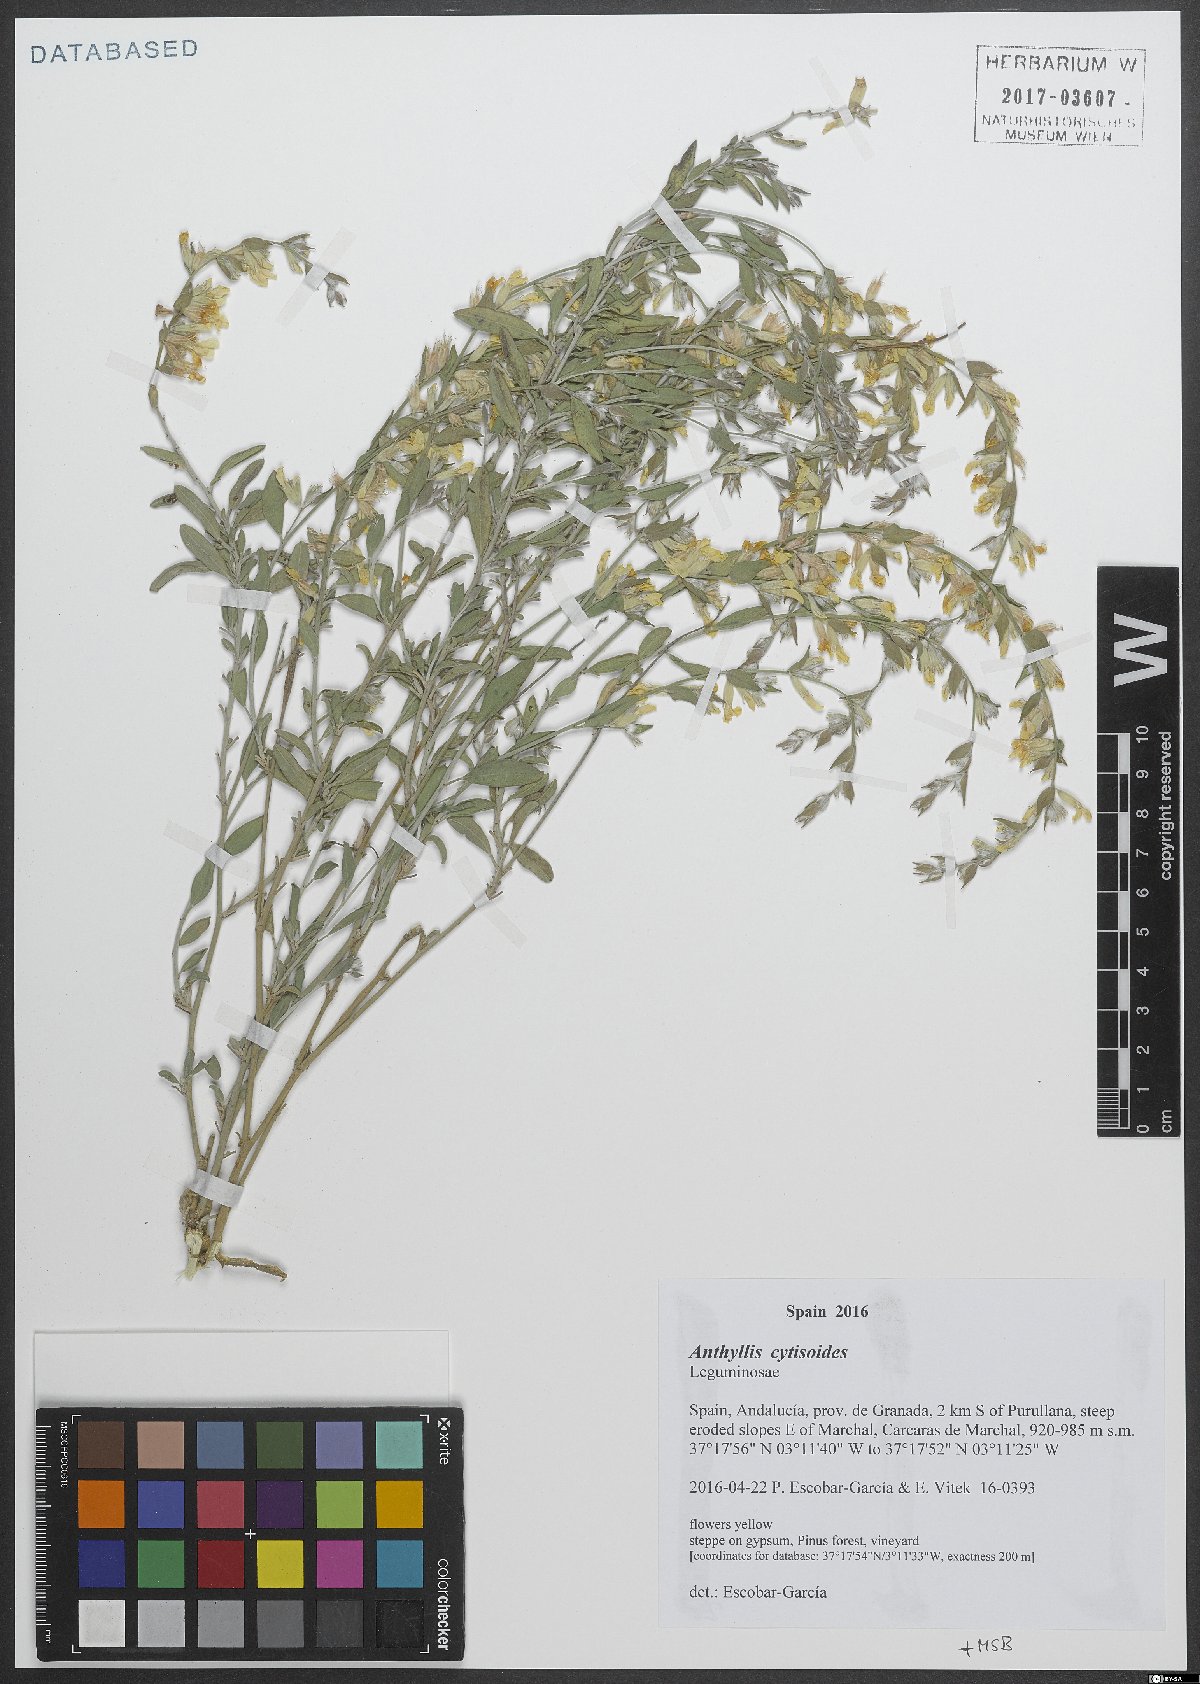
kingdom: Plantae
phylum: Tracheophyta
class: Magnoliopsida
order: Fabales
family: Fabaceae
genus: Anthyllis
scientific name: Anthyllis cytisoides
